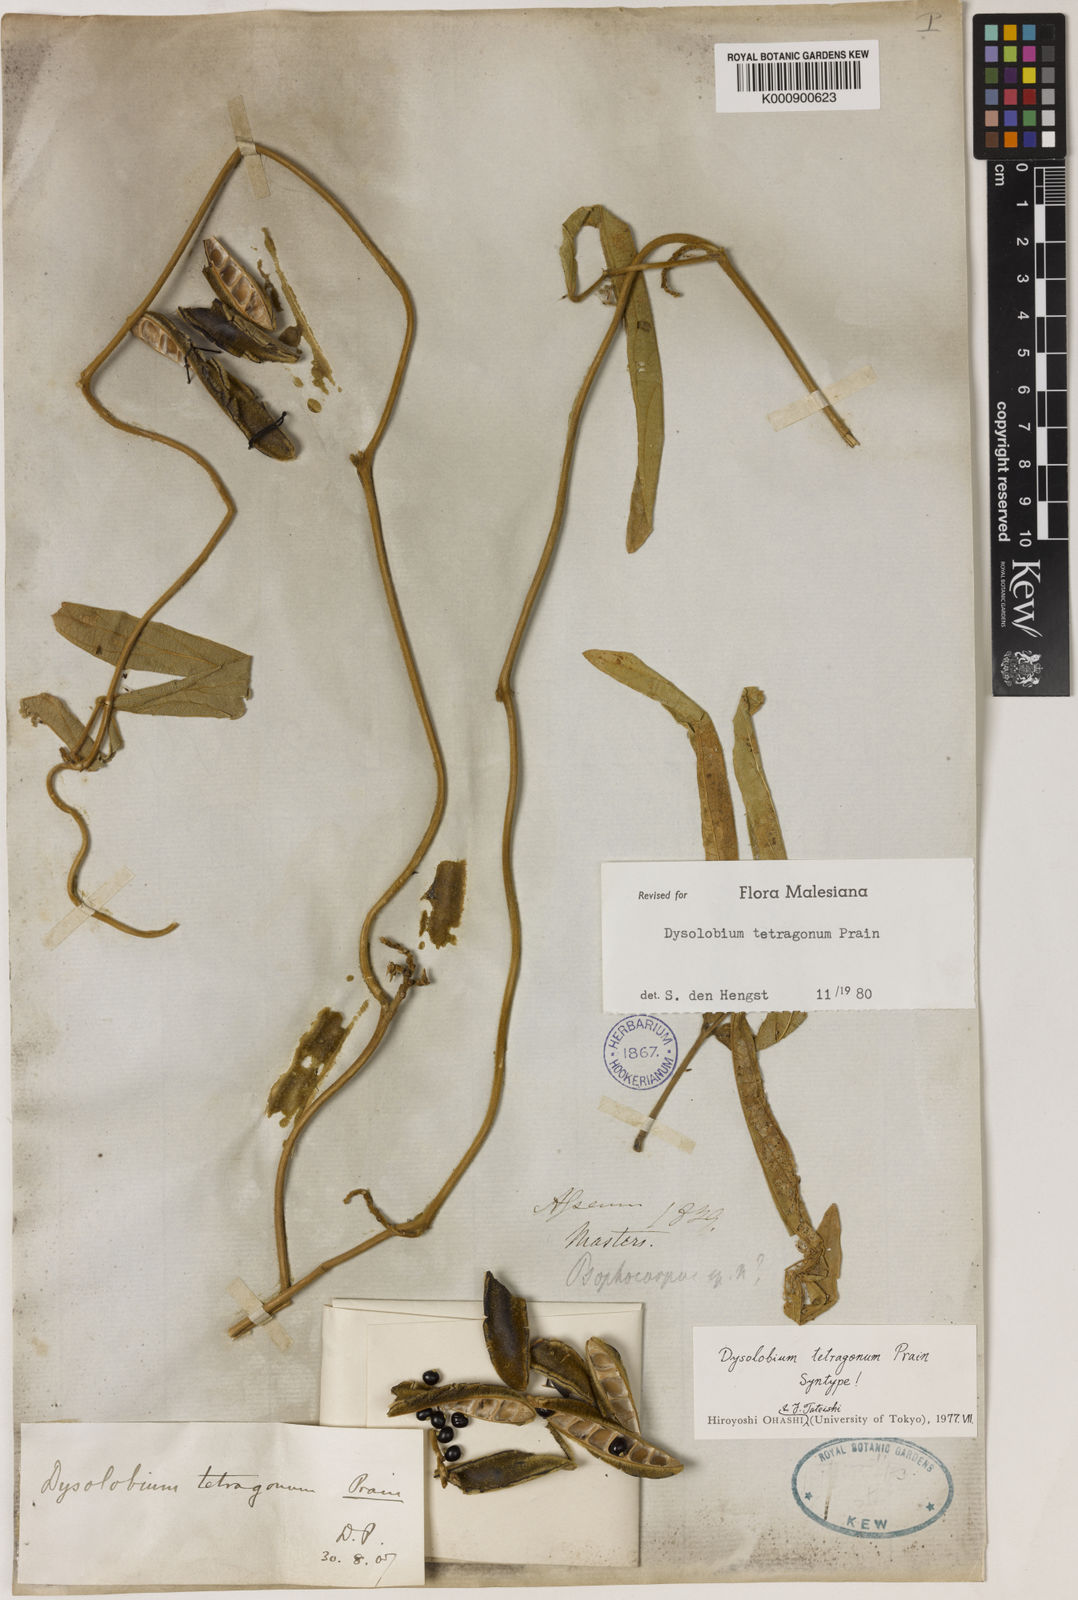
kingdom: Plantae
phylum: Tracheophyta
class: Magnoliopsida
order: Fabales
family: Fabaceae
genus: Dysolobium
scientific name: Dysolobium
